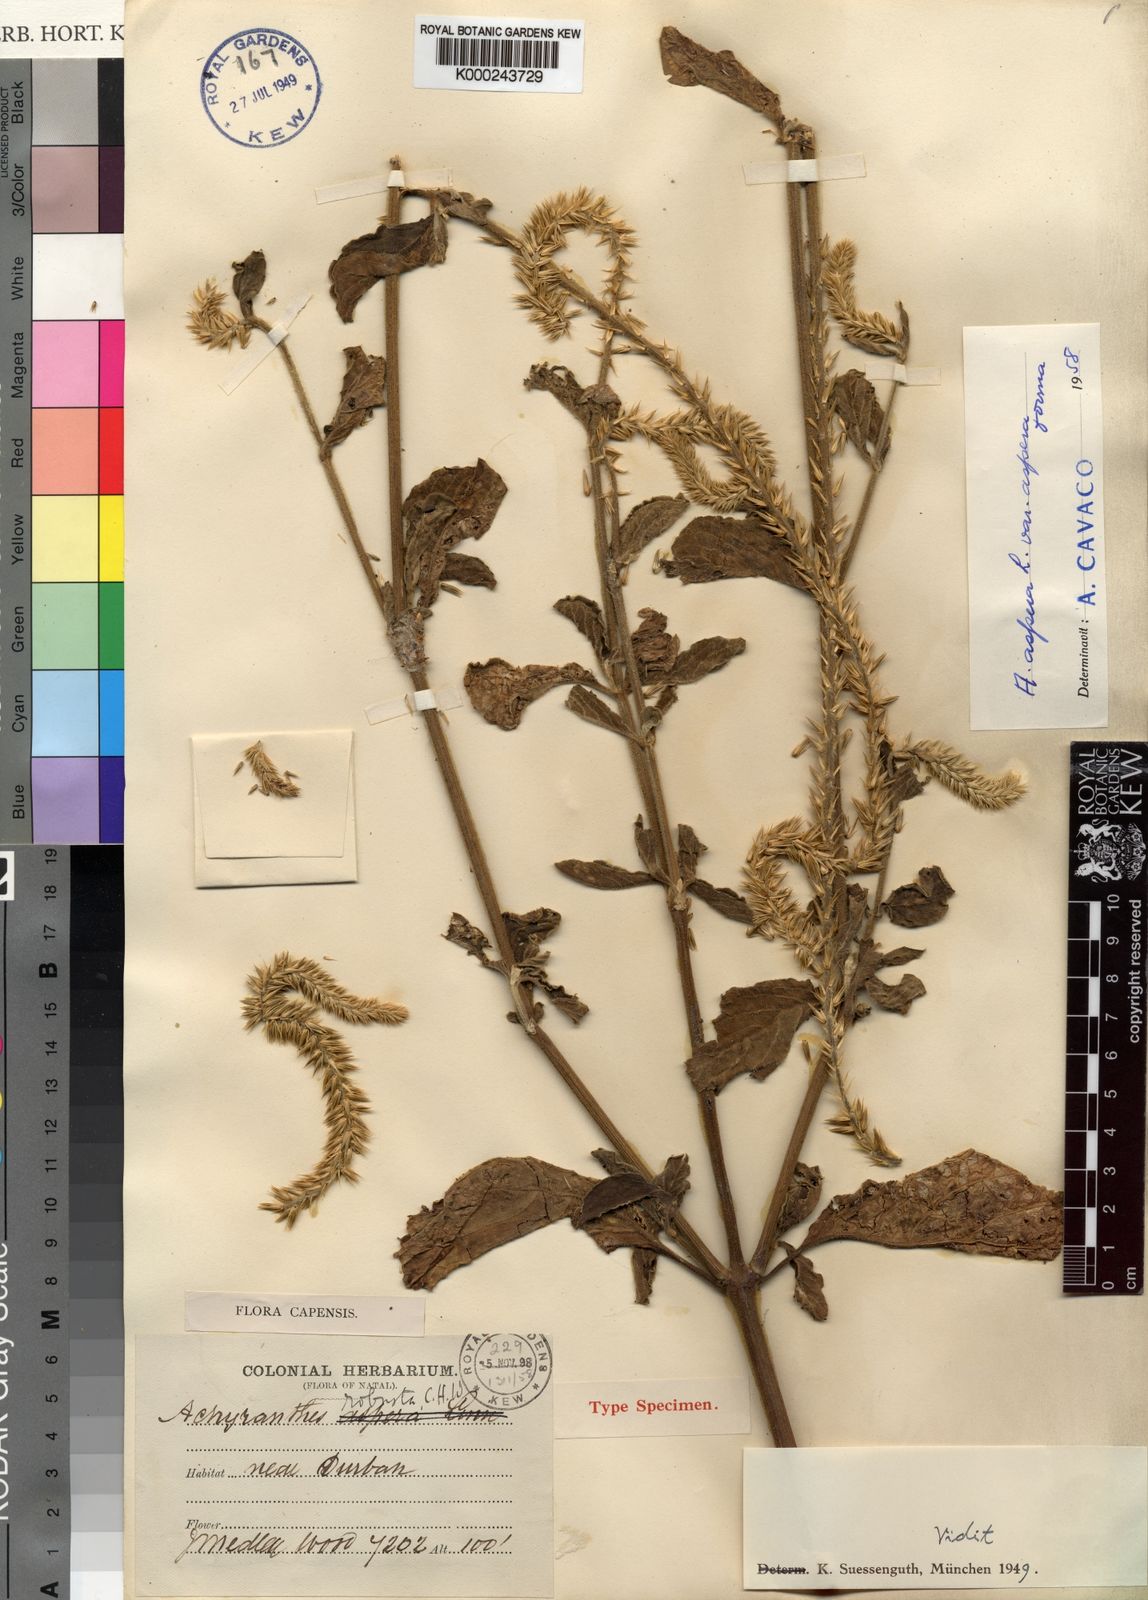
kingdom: Plantae
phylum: Tracheophyta
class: Magnoliopsida
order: Caryophyllales
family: Amaranthaceae
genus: Achyranthes
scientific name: Achyranthes aspera
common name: Devil's horsewhip
